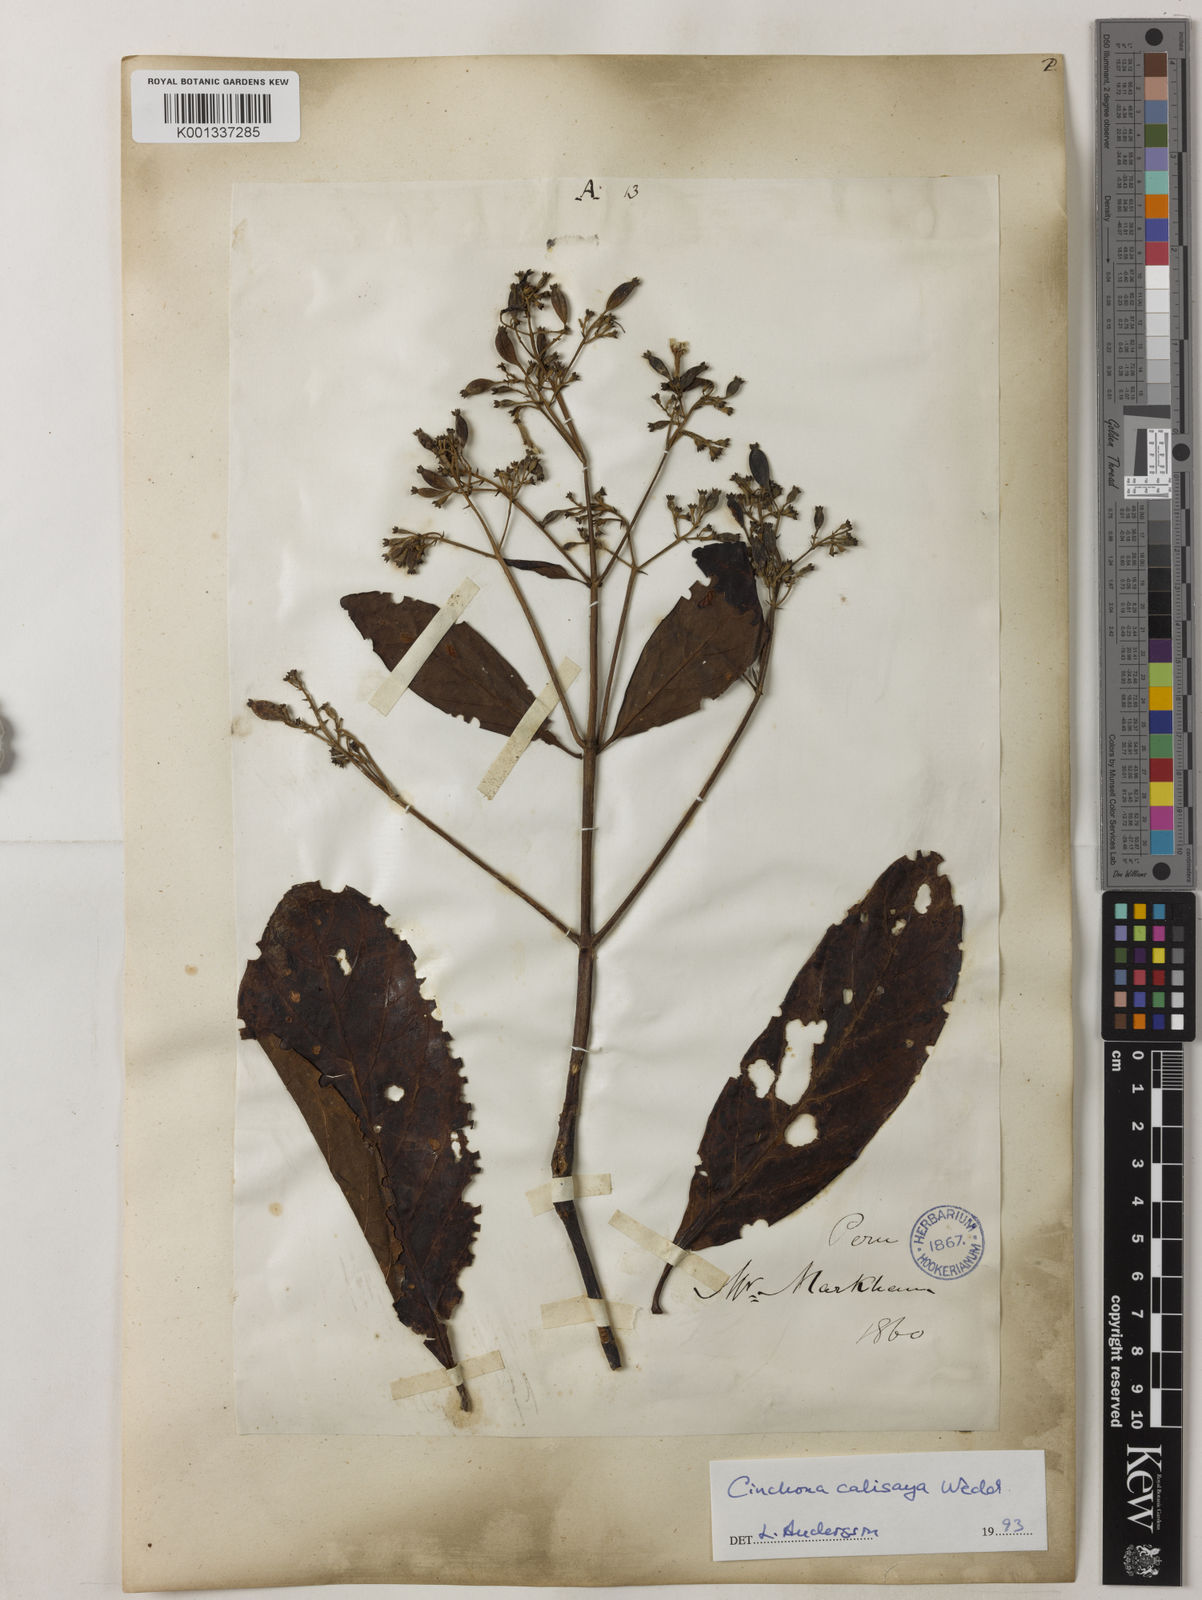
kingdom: Plantae
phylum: Tracheophyta
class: Magnoliopsida
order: Gentianales
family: Rubiaceae
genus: Cinchona
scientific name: Cinchona calisaya
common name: Ledgerbark
